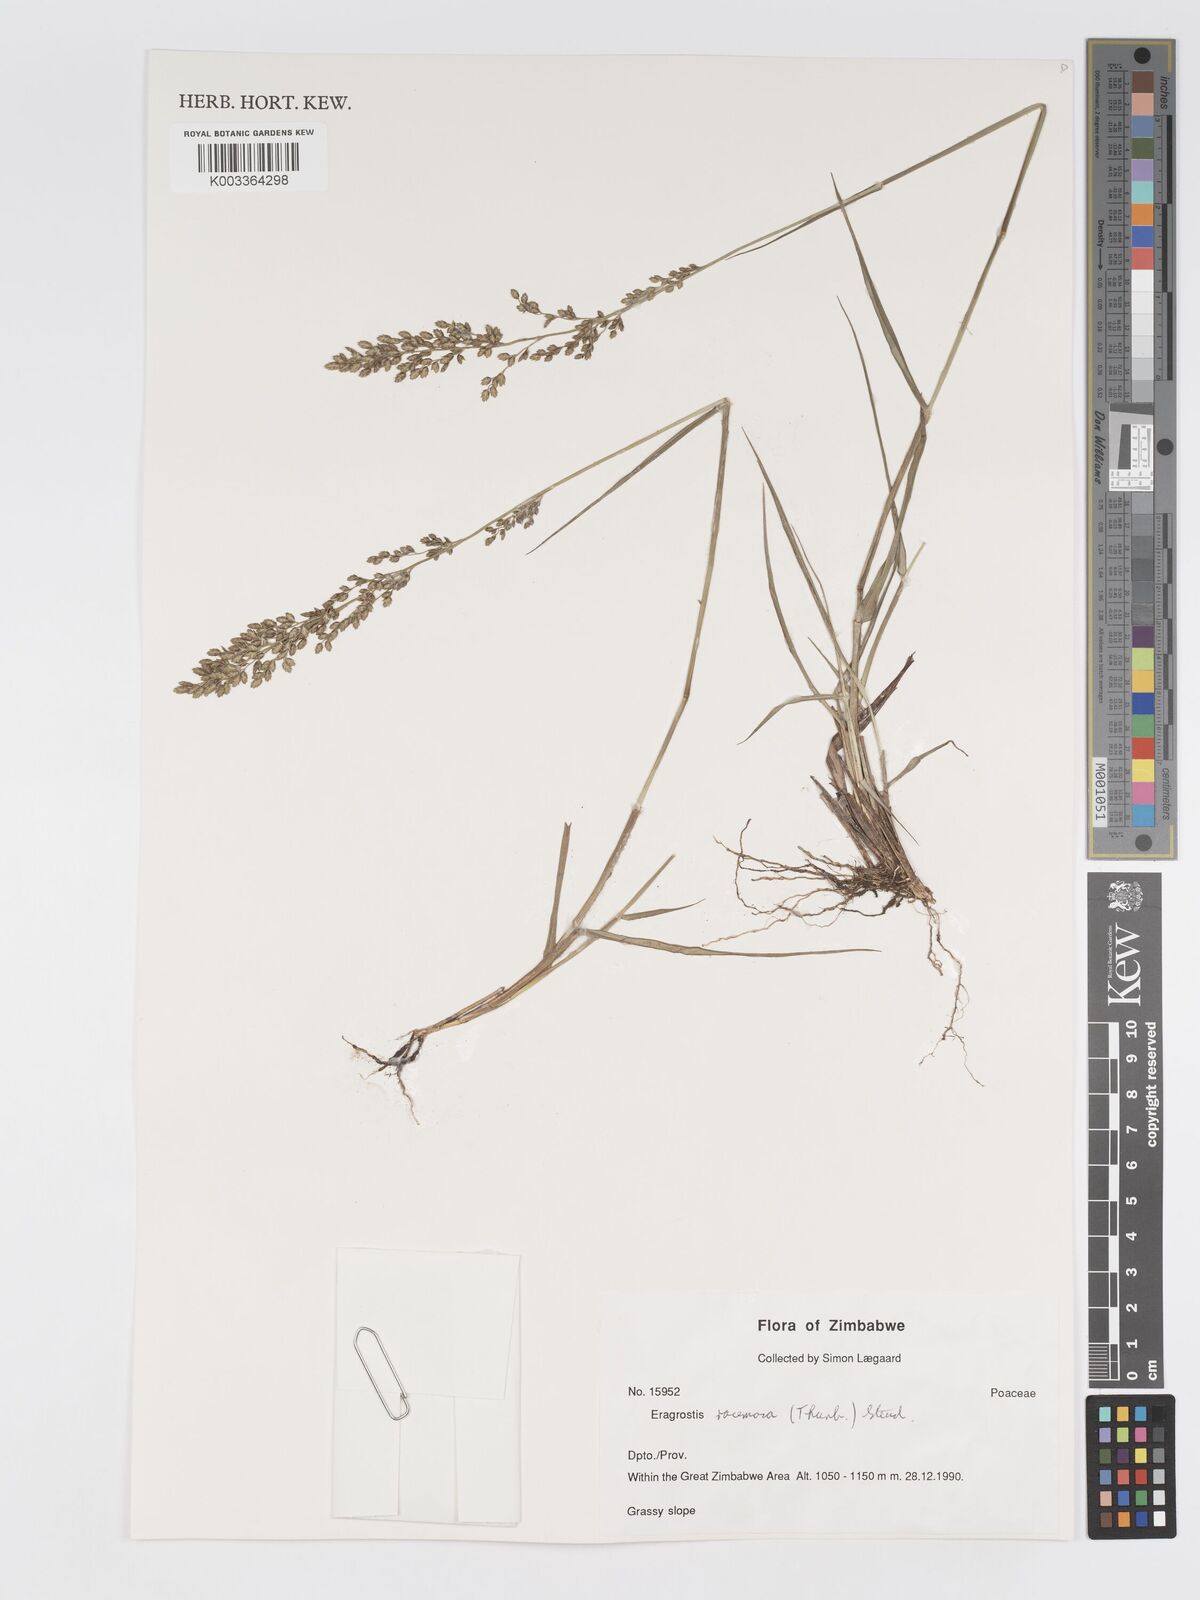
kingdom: Plantae
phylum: Tracheophyta
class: Liliopsida
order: Poales
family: Poaceae
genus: Eragrostis
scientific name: Eragrostis racemosa
